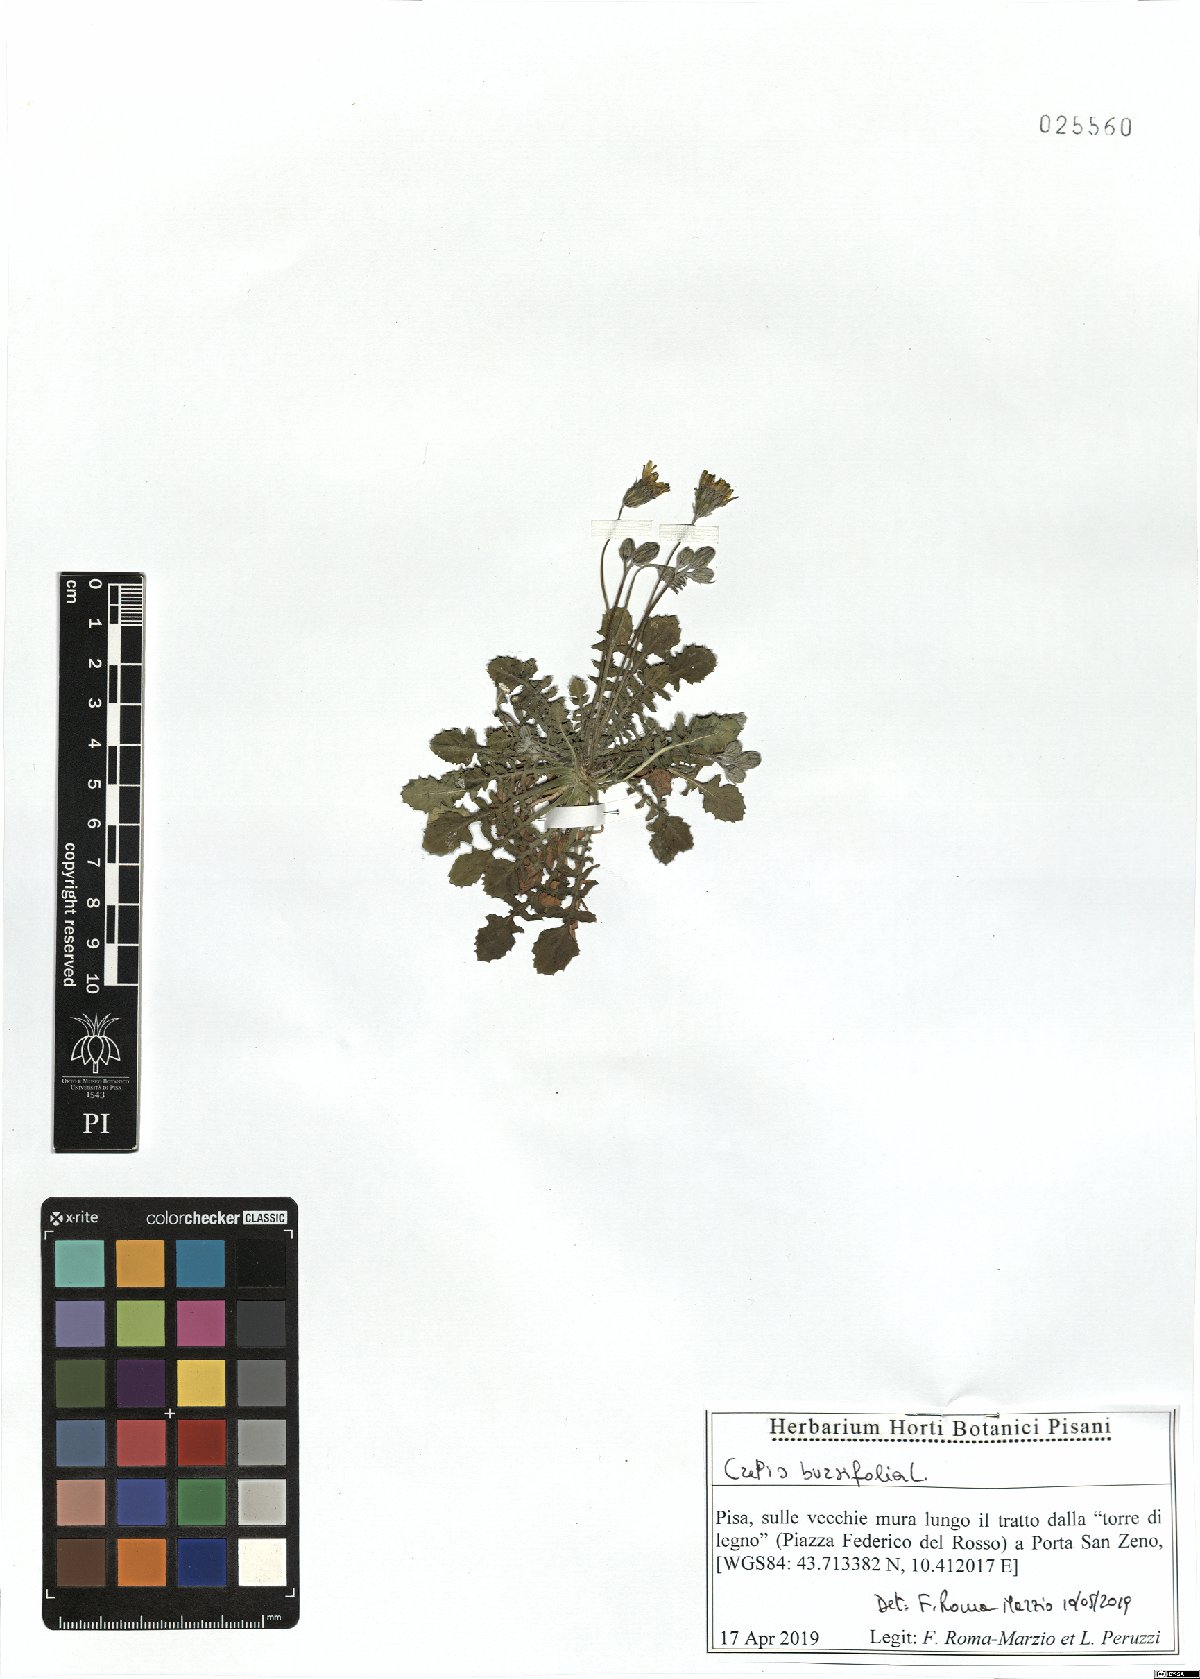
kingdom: Plantae
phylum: Tracheophyta
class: Magnoliopsida
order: Asterales
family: Asteraceae
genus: Crepis
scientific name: Crepis bursifolia
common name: Italian hawksbeard
